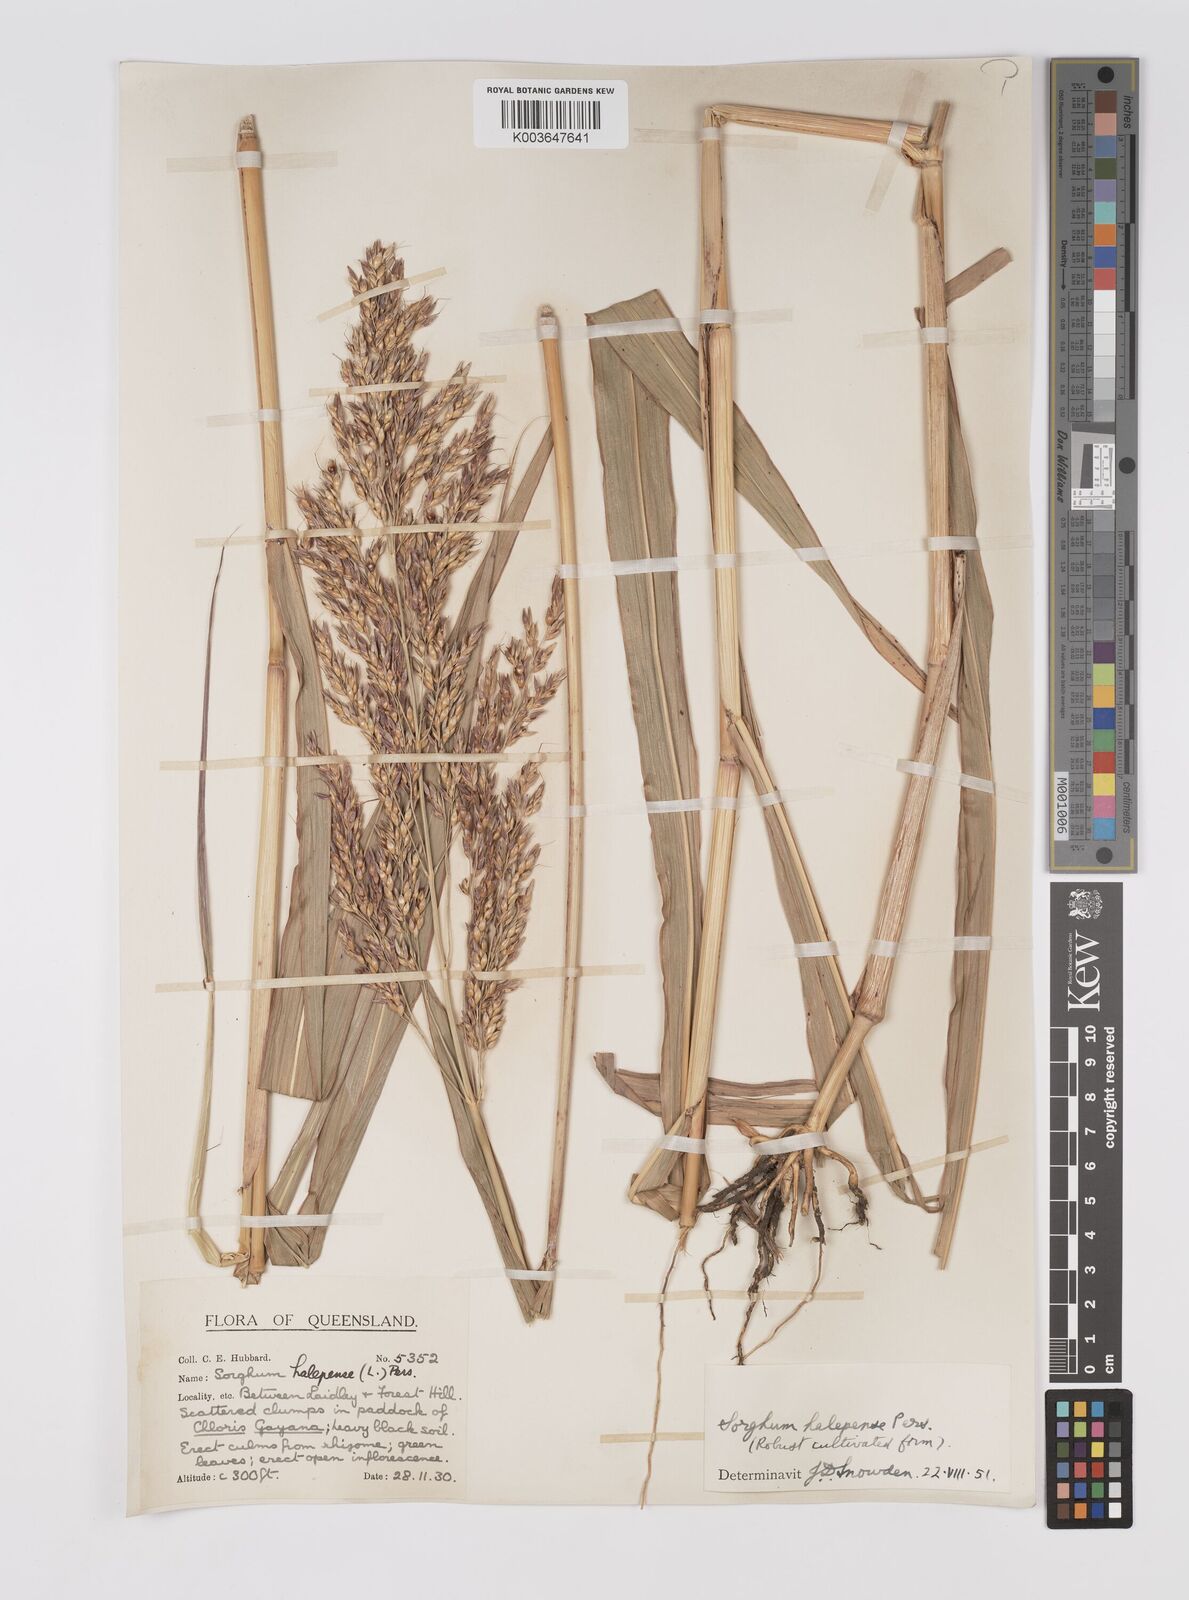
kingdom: Plantae
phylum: Tracheophyta
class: Liliopsida
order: Poales
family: Poaceae
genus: Sorghum
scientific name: Sorghum halepense
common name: Johnson-grass
